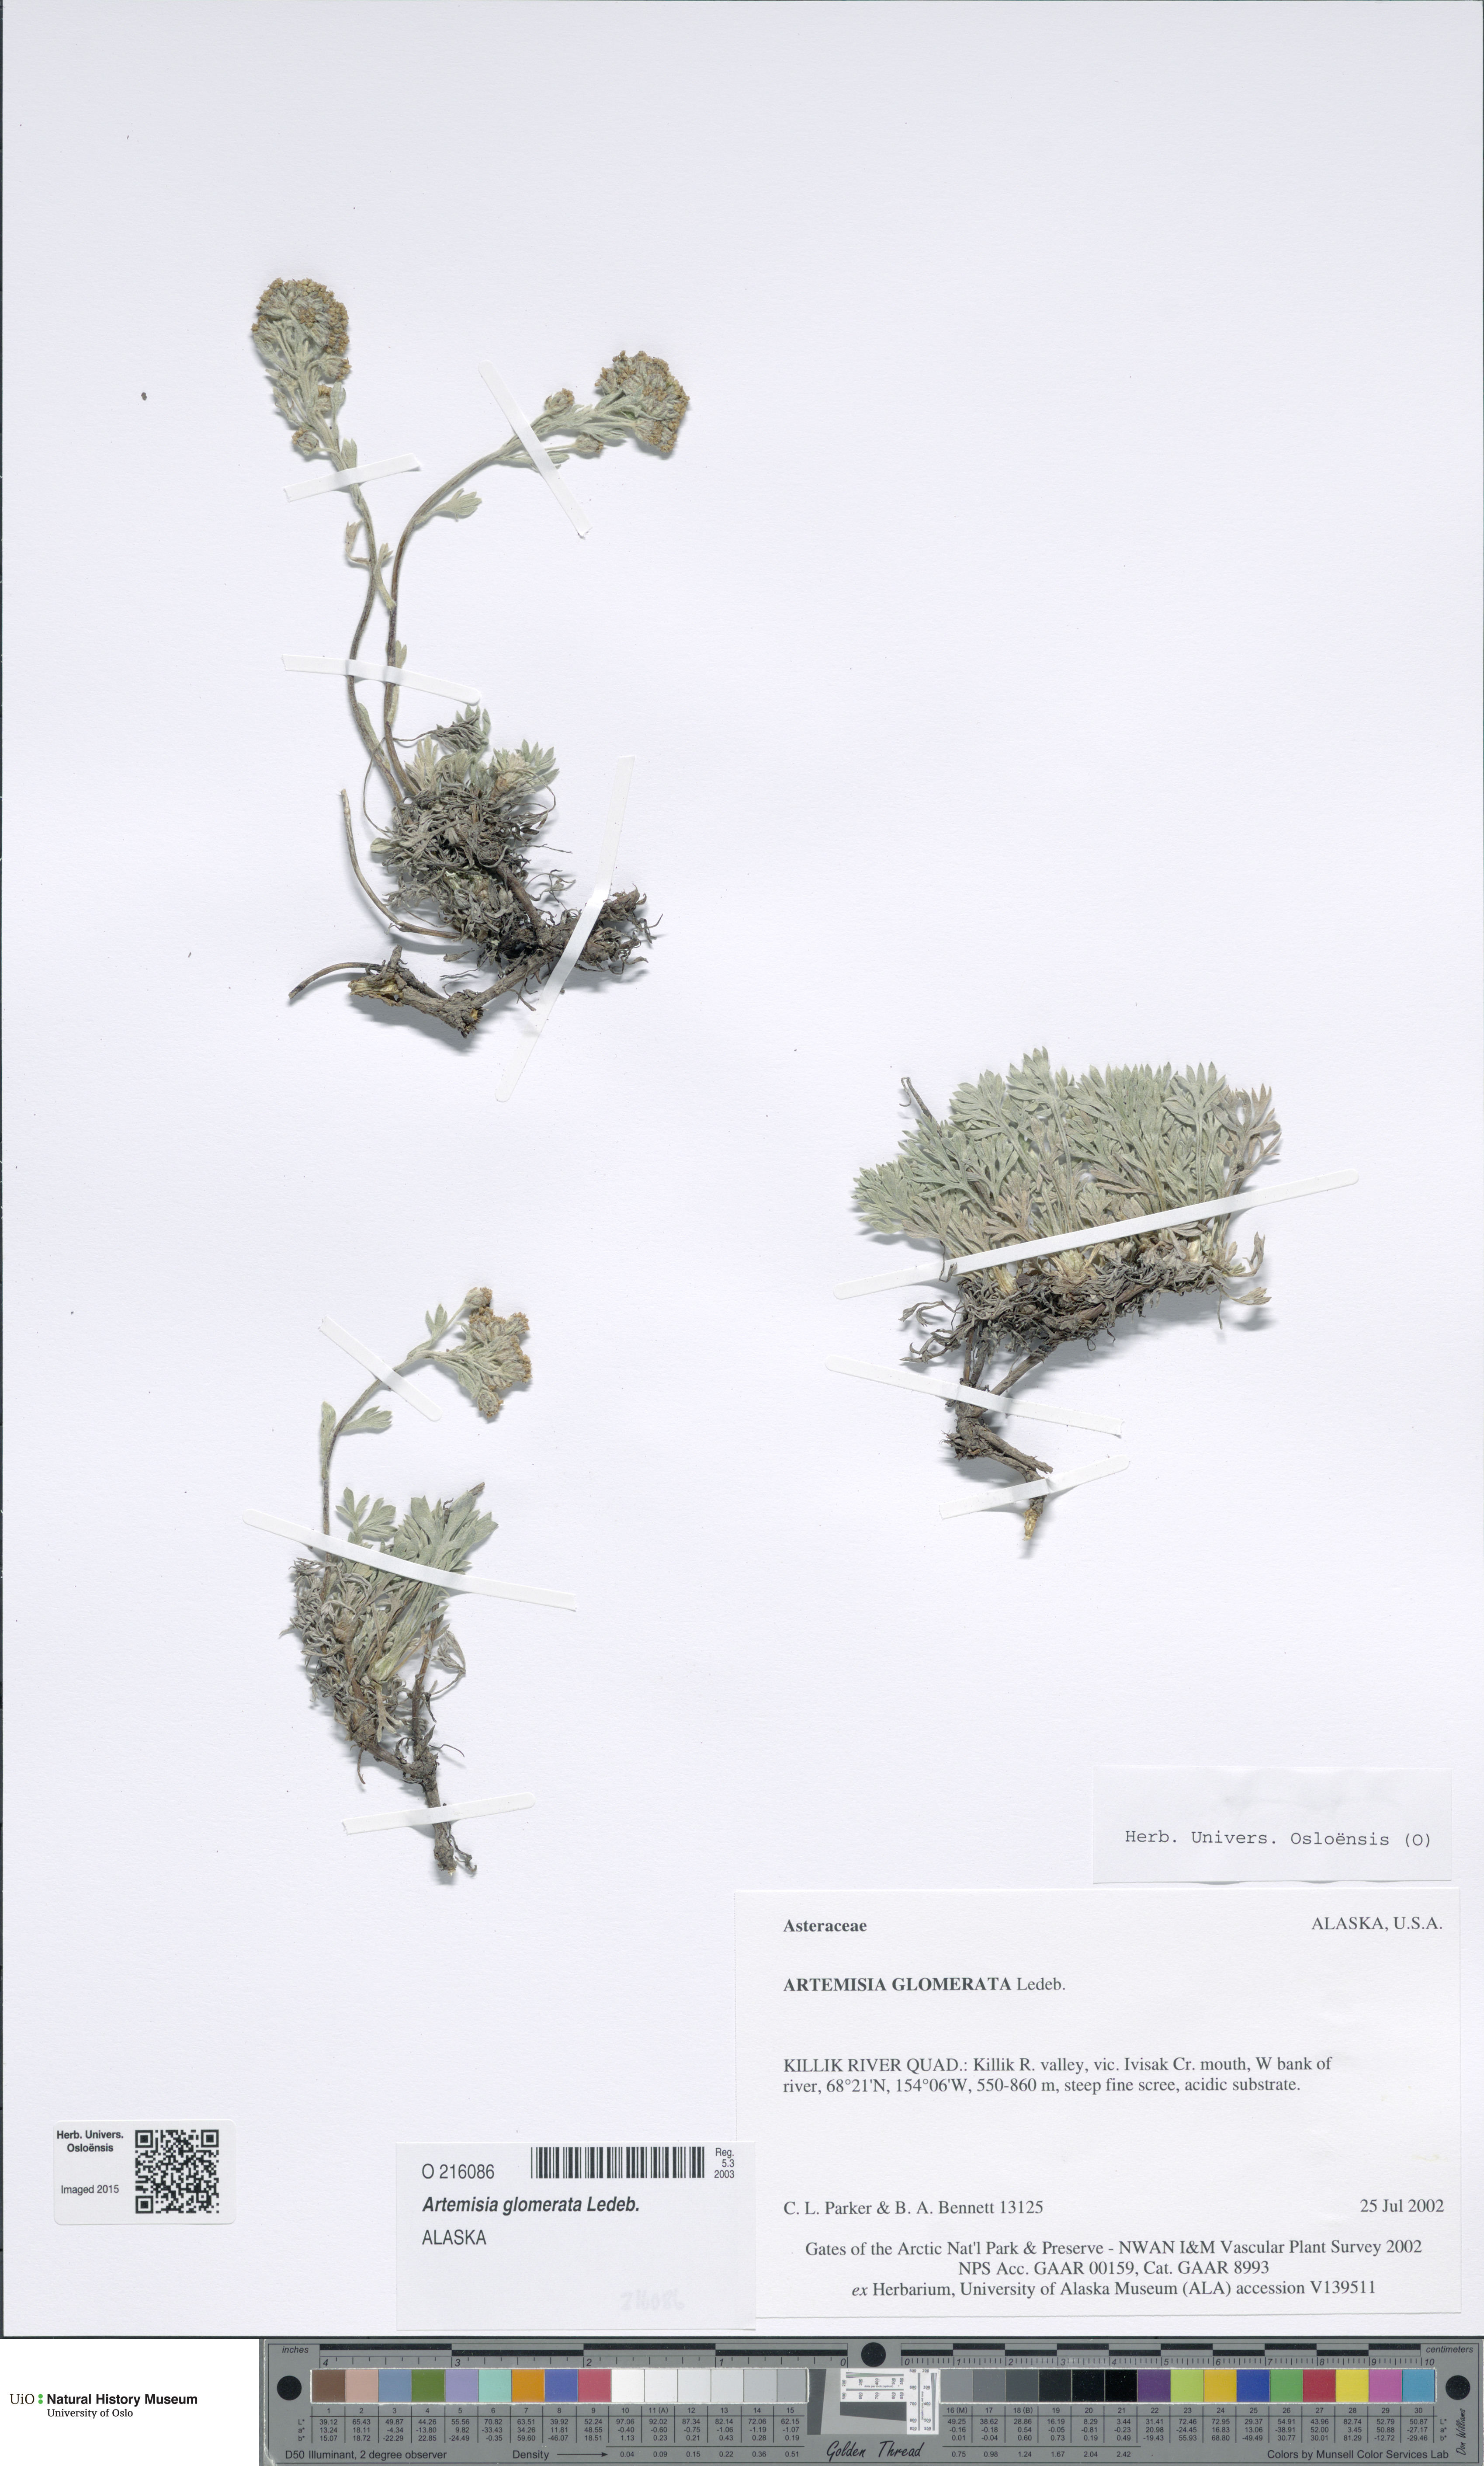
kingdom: Plantae
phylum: Tracheophyta
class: Magnoliopsida
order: Asterales
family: Asteraceae
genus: Artemisia
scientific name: Artemisia glomerata
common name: Pacific alpine wormwood
